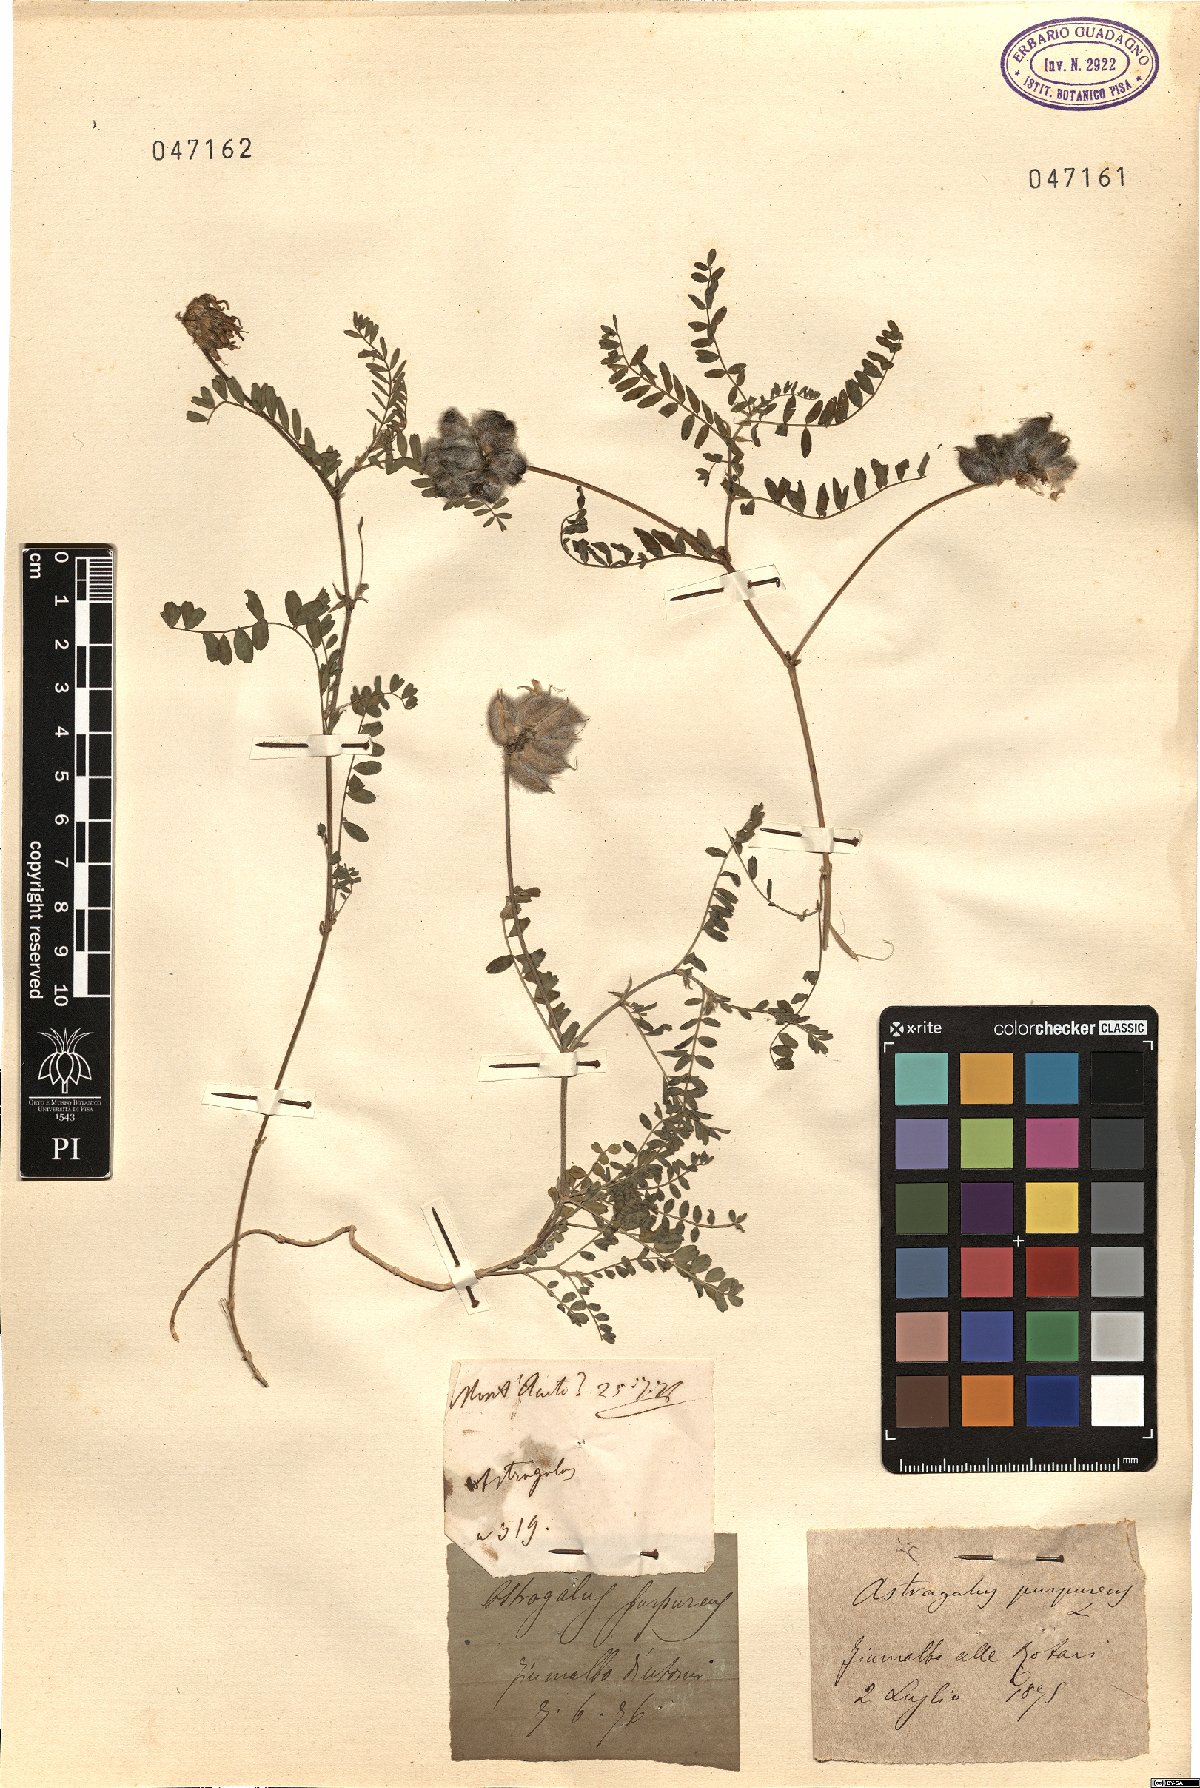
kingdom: Plantae
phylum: Tracheophyta
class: Magnoliopsida
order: Fabales
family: Fabaceae
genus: Astragalus
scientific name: Astragalus hypoglottis
